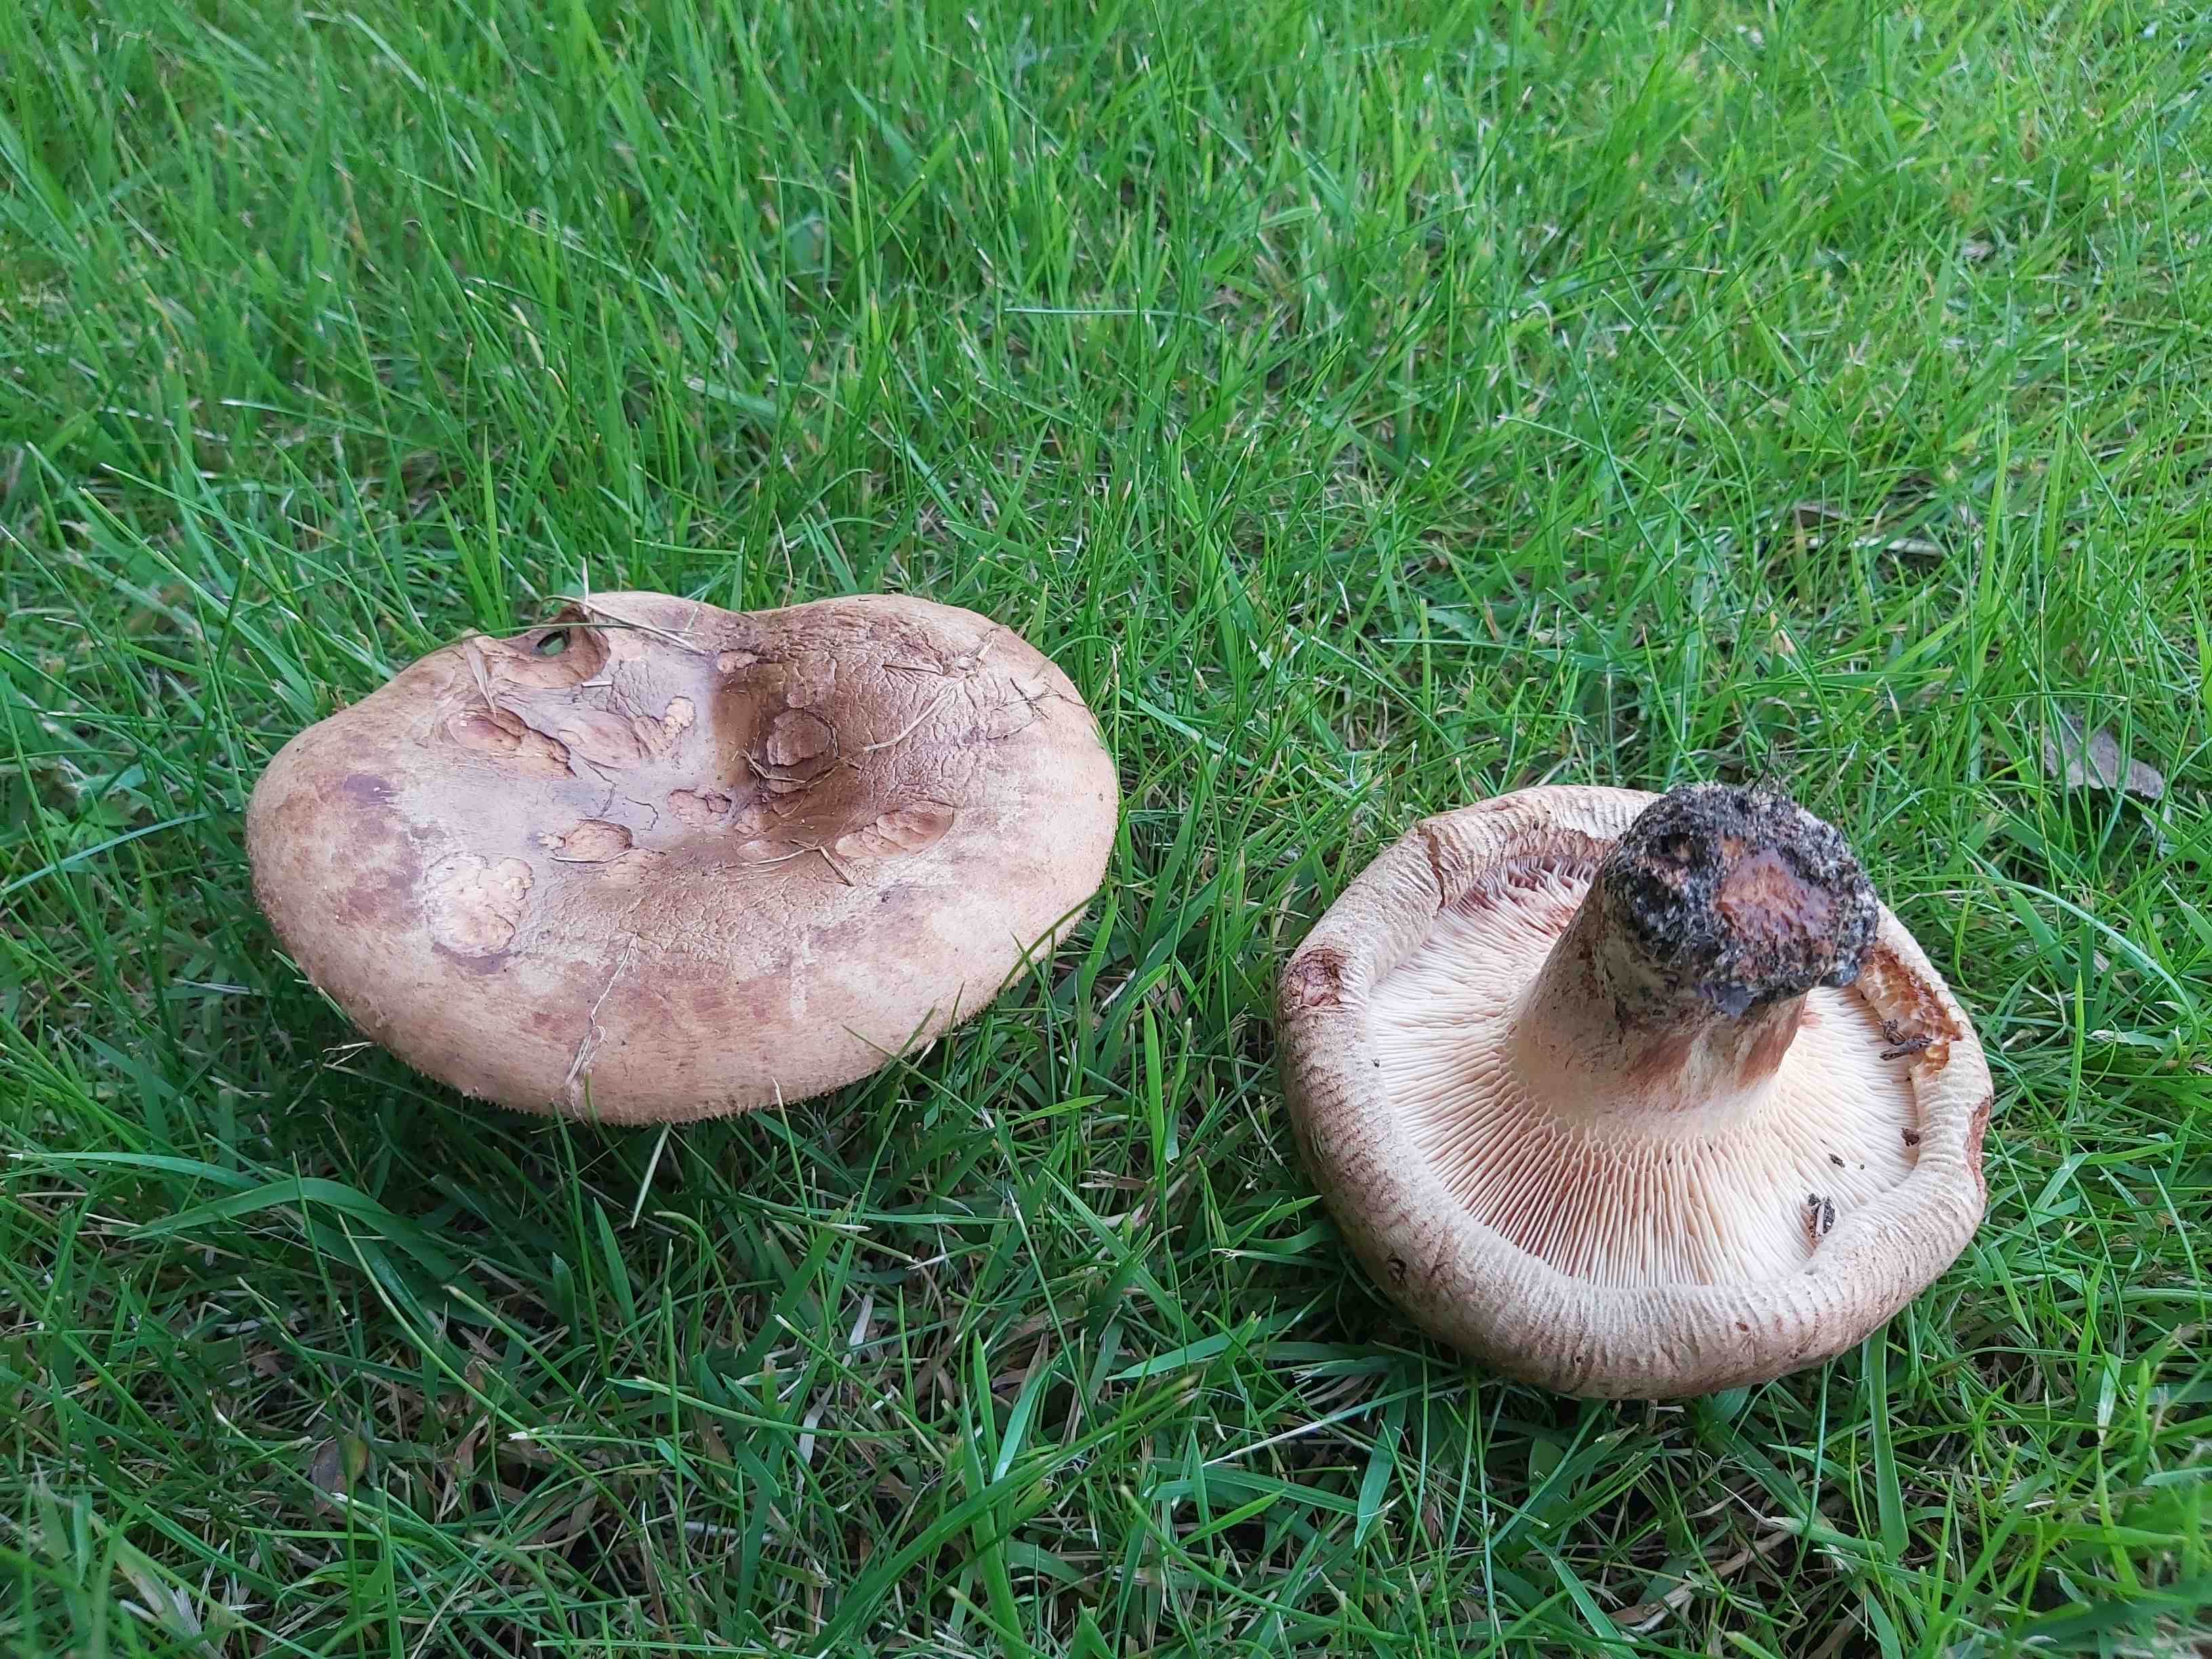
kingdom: Fungi
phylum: Basidiomycota
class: Agaricomycetes
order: Boletales
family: Paxillaceae
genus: Paxillus
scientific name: Paxillus
